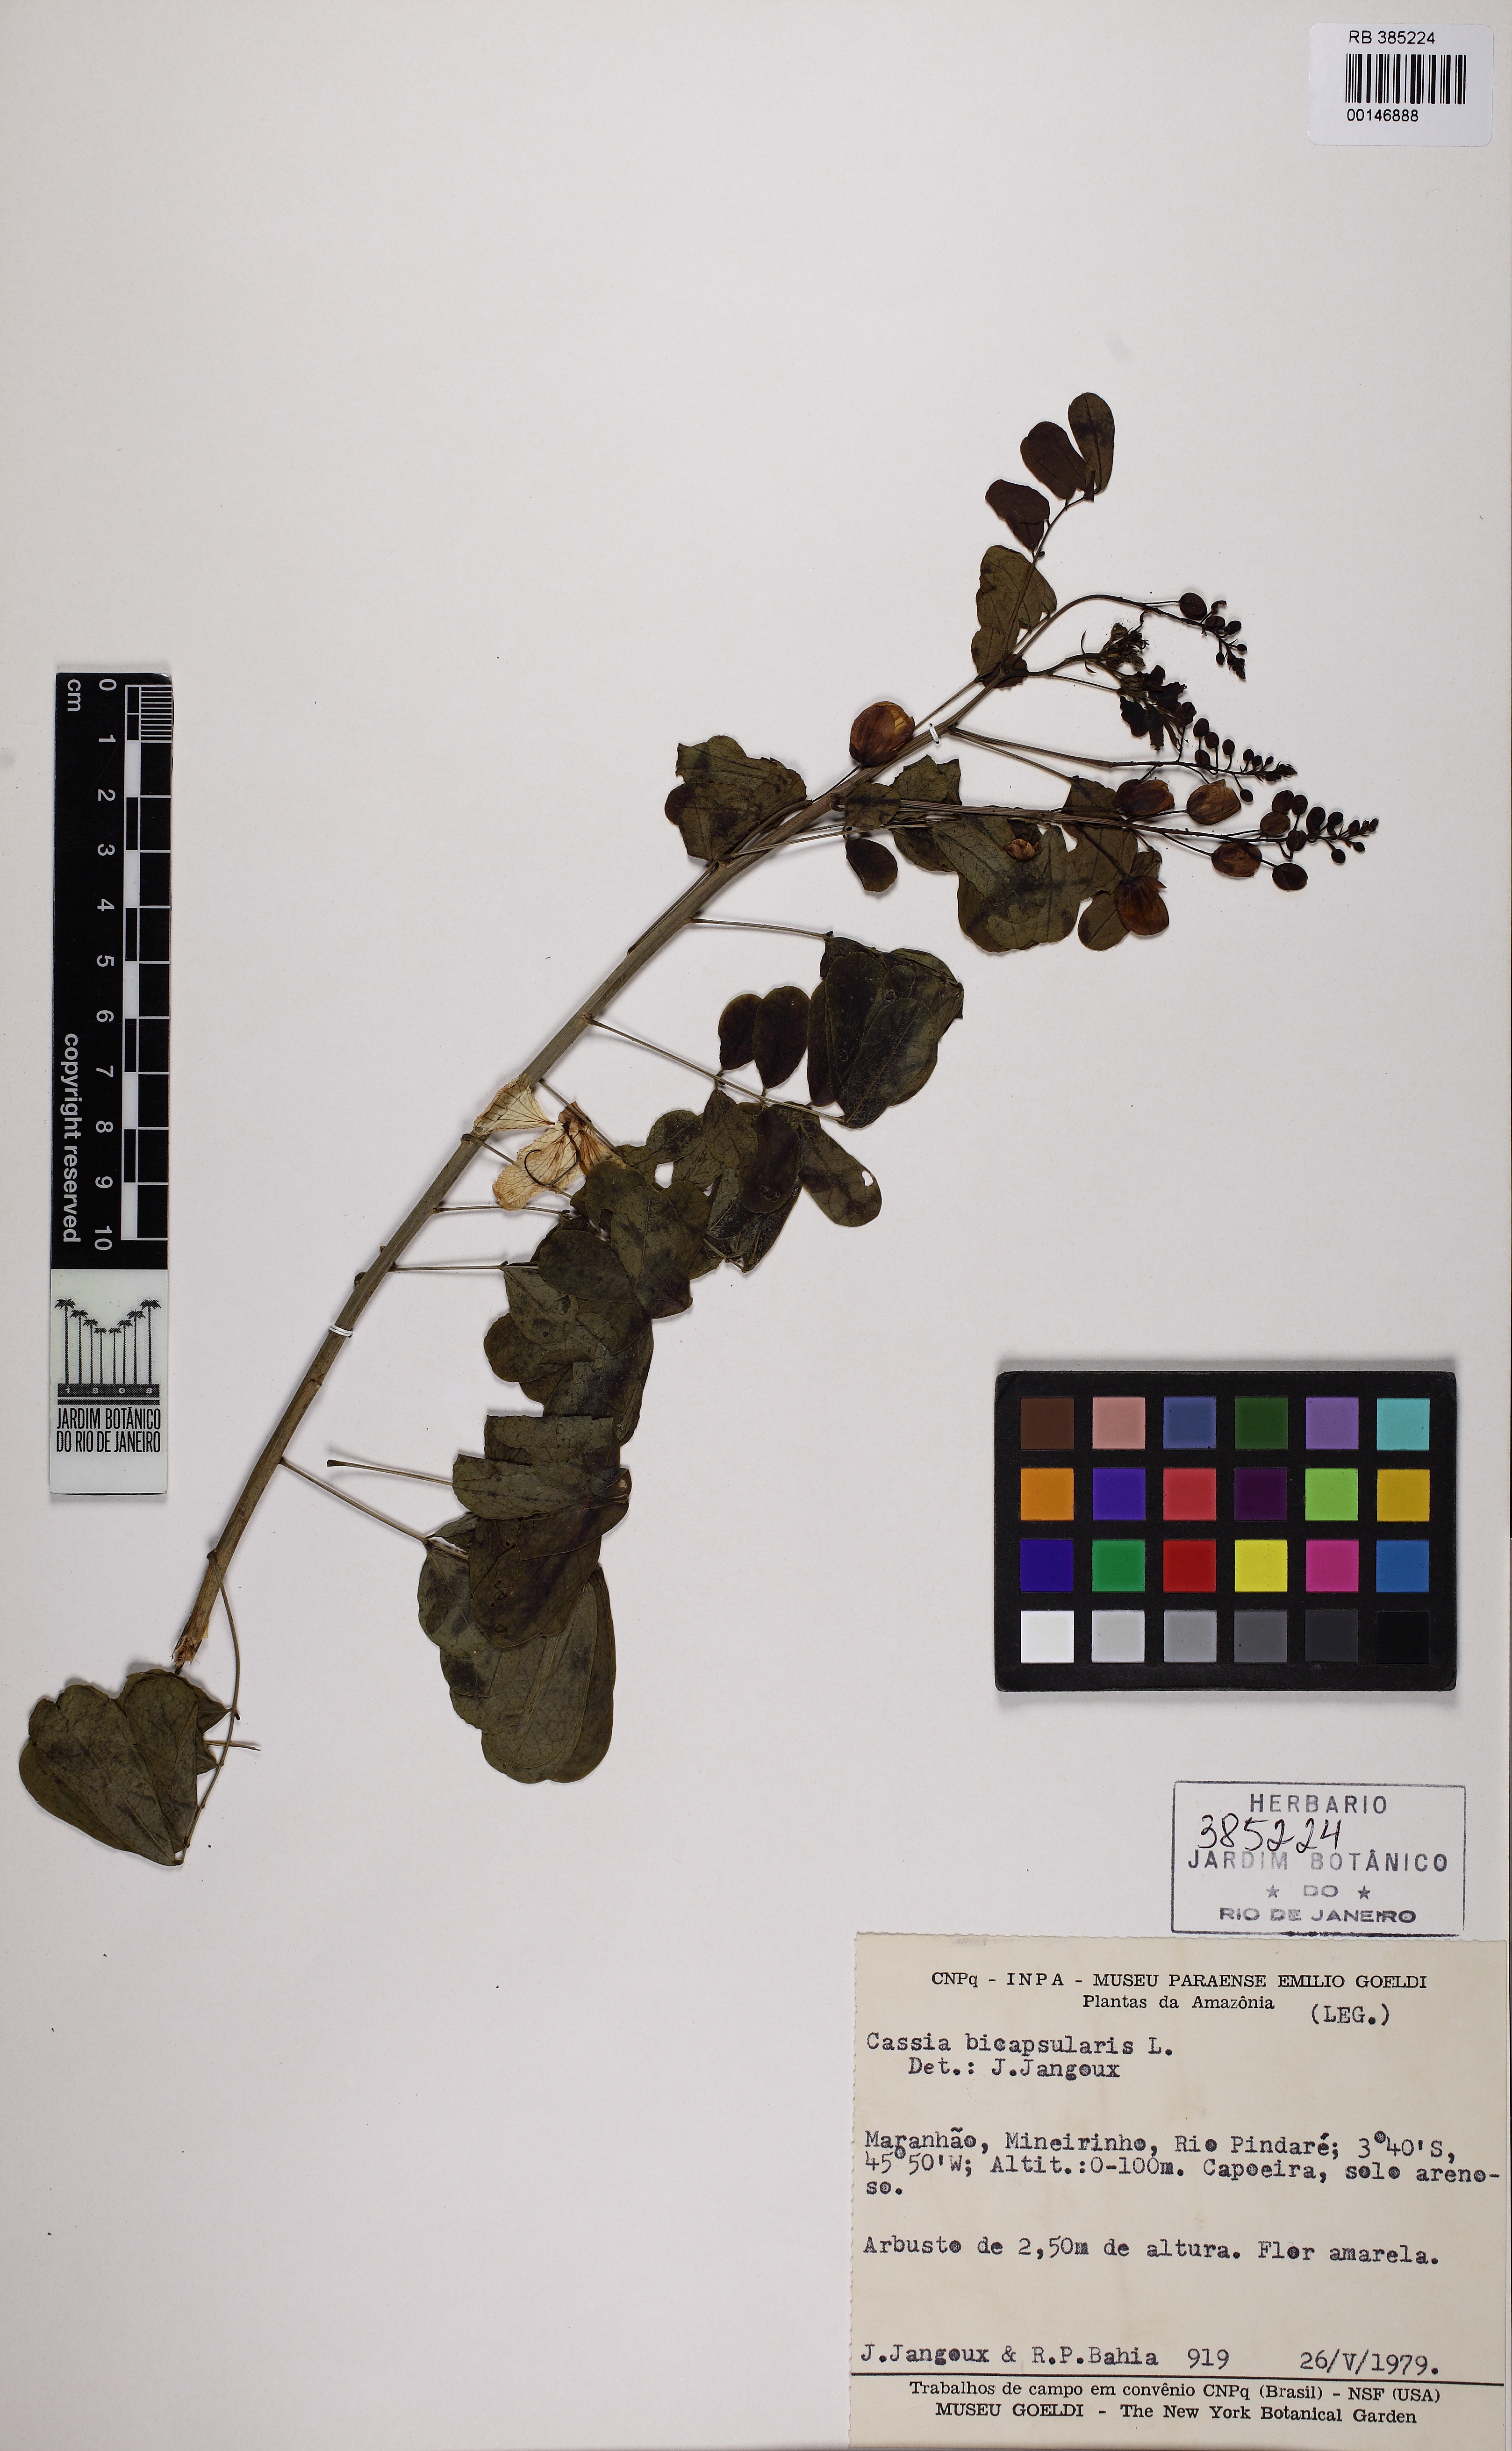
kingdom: Plantae
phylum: Tracheophyta
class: Magnoliopsida
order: Fabales
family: Fabaceae
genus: Senna
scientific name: Senna bicapsularis
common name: Christmasbush
